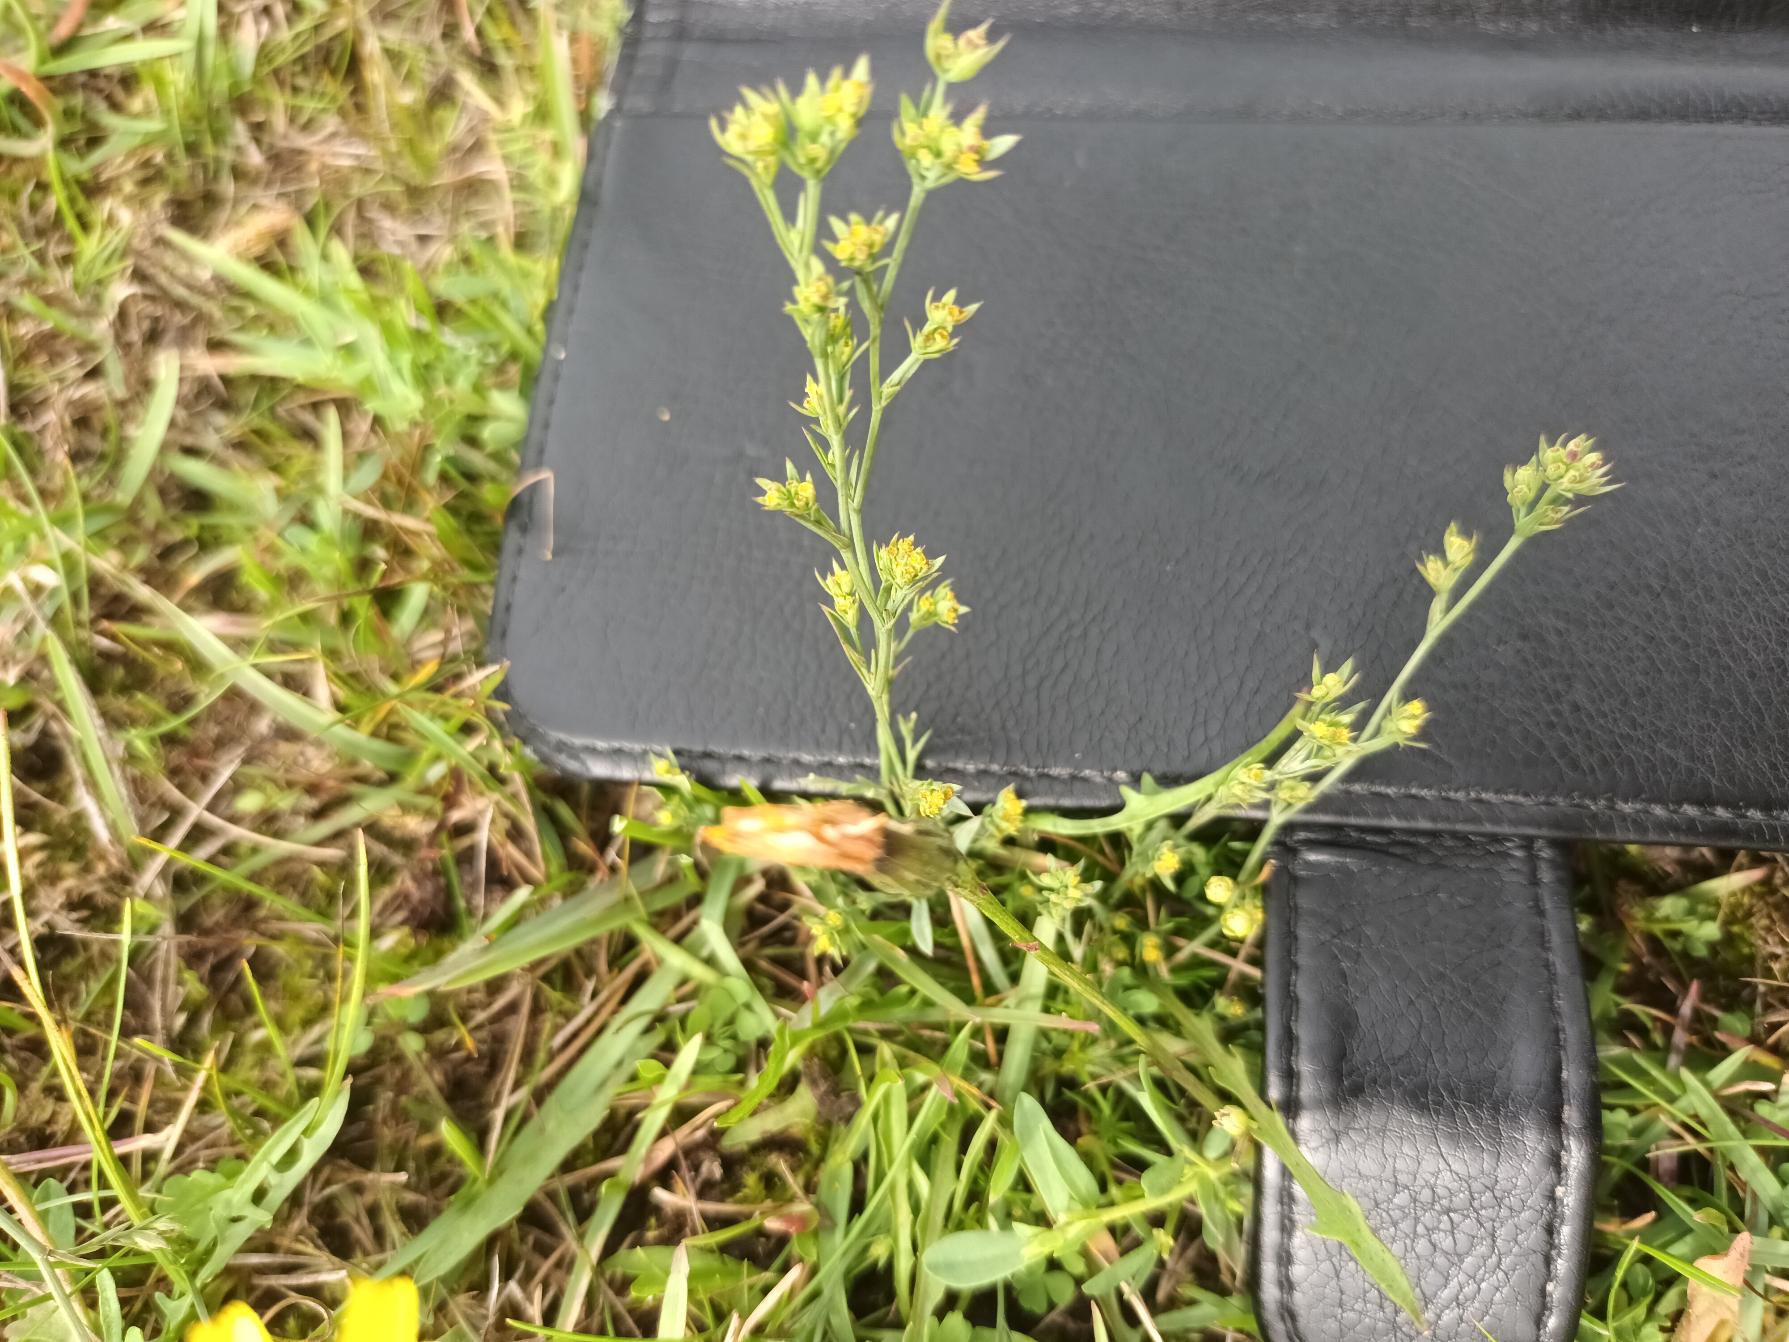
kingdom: Plantae
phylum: Tracheophyta
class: Magnoliopsida
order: Apiales
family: Apiaceae
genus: Bupleurum
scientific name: Bupleurum tenuissimum
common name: Smalbladet hareøre
